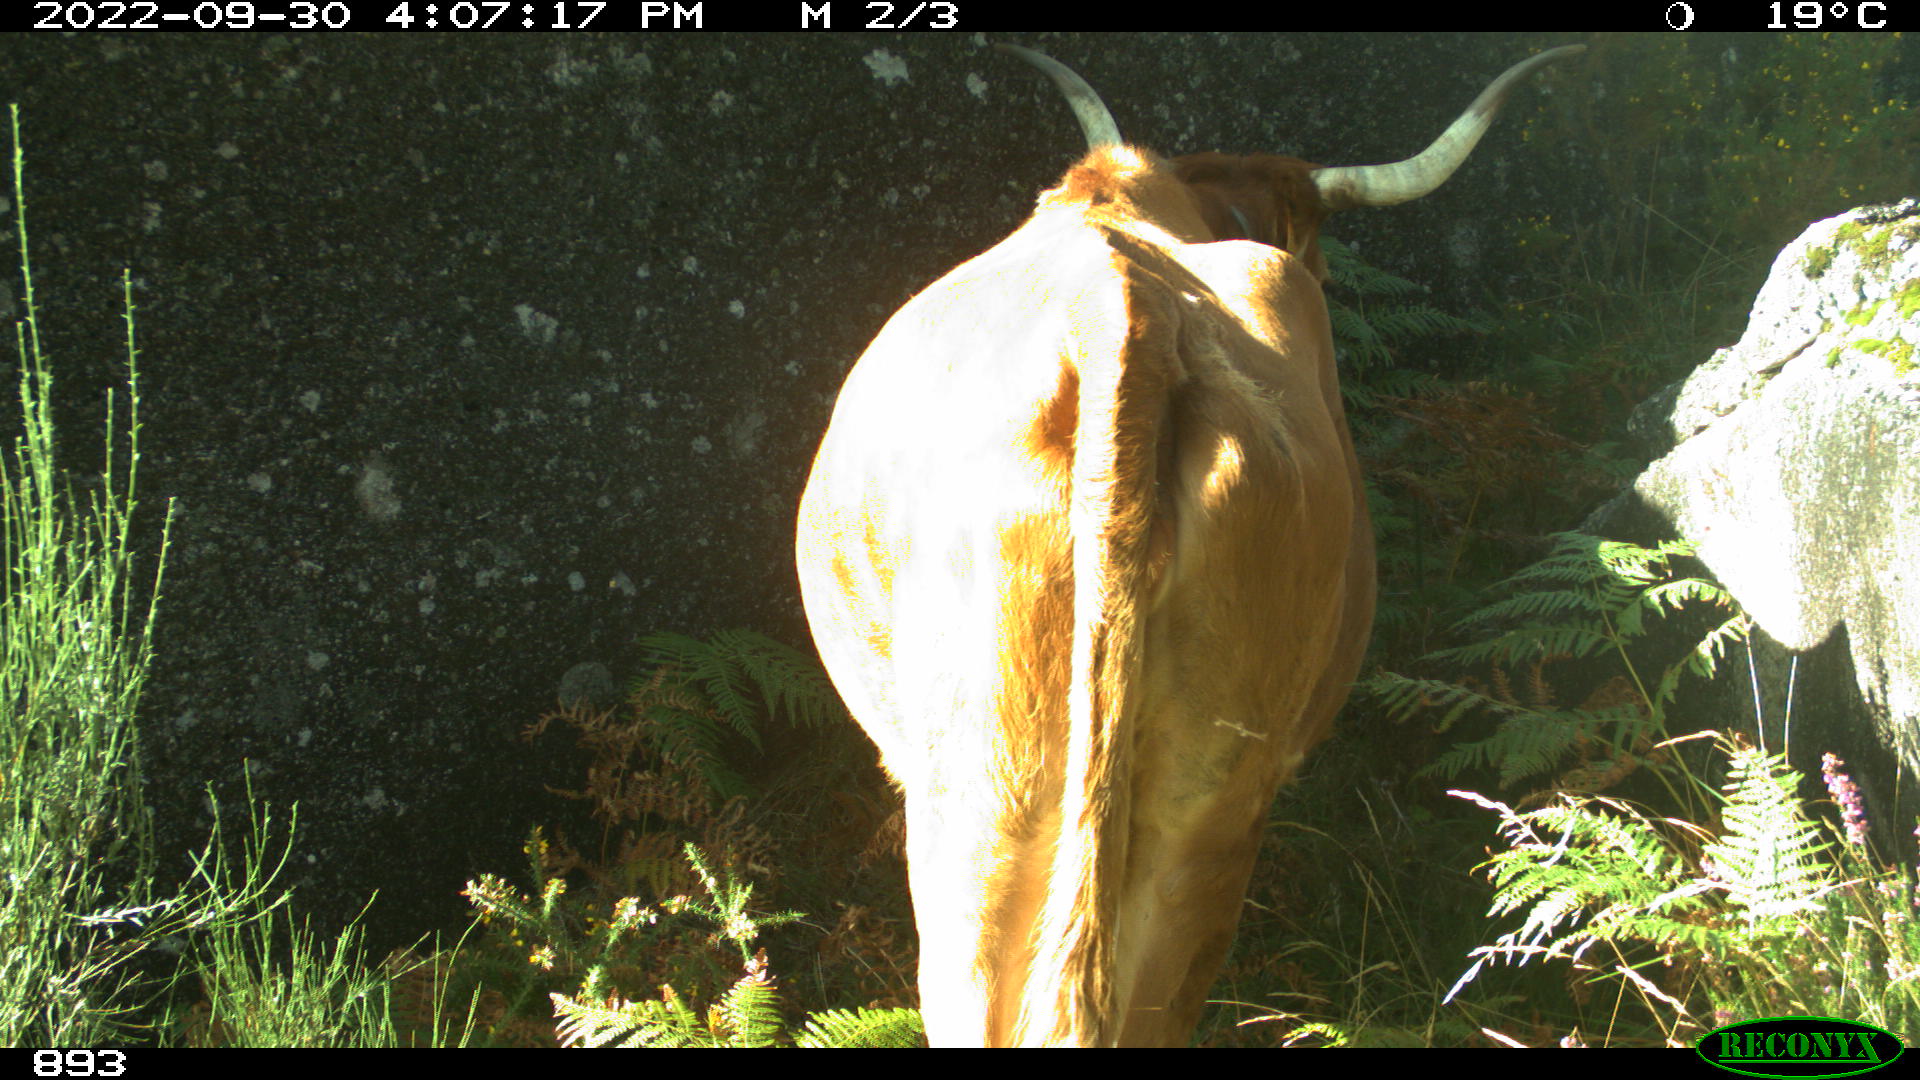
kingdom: Animalia
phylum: Chordata
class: Mammalia
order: Artiodactyla
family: Bovidae
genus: Bos
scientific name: Bos taurus
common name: Domesticated cattle
